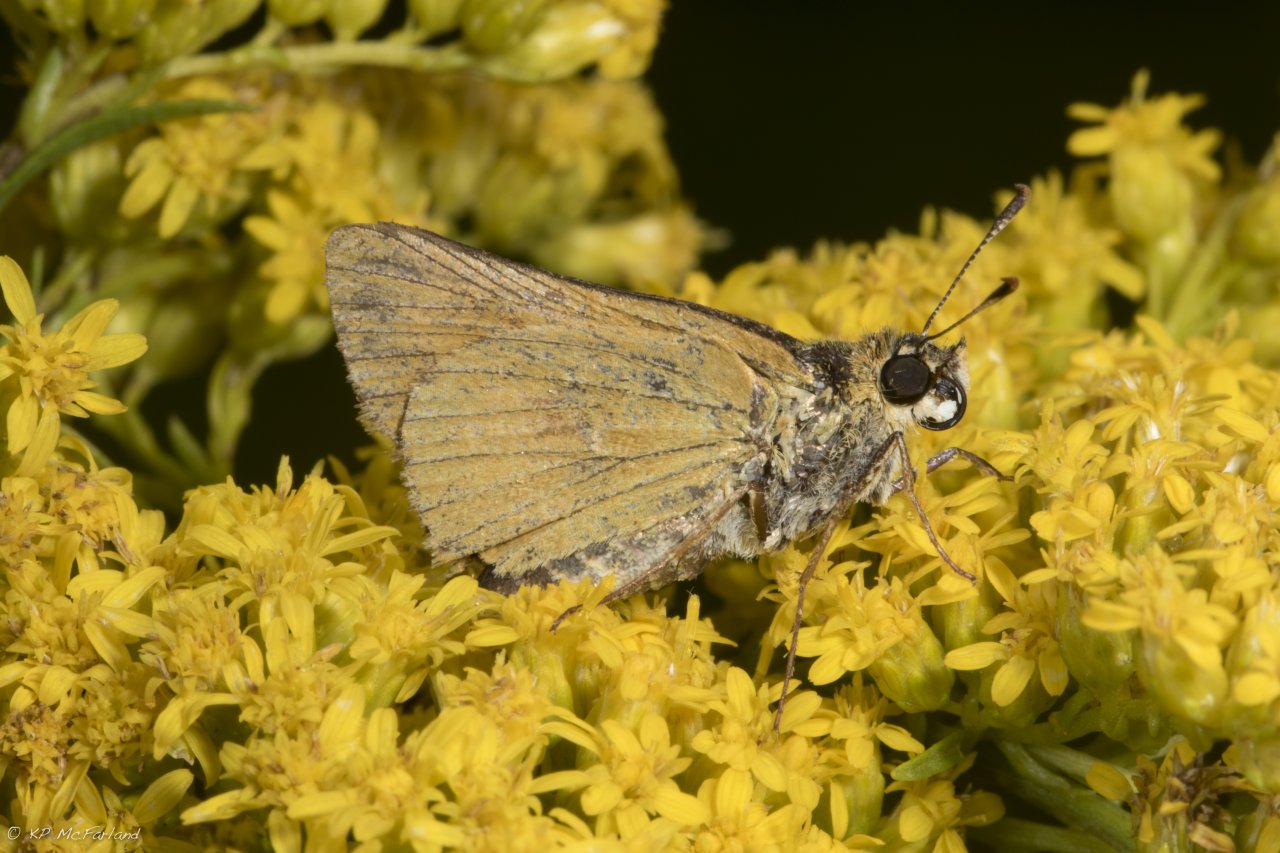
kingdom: Animalia
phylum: Arthropoda
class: Insecta
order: Lepidoptera
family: Hesperiidae
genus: Atrytone
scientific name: Atrytone delaware
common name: Delaware Skipper
